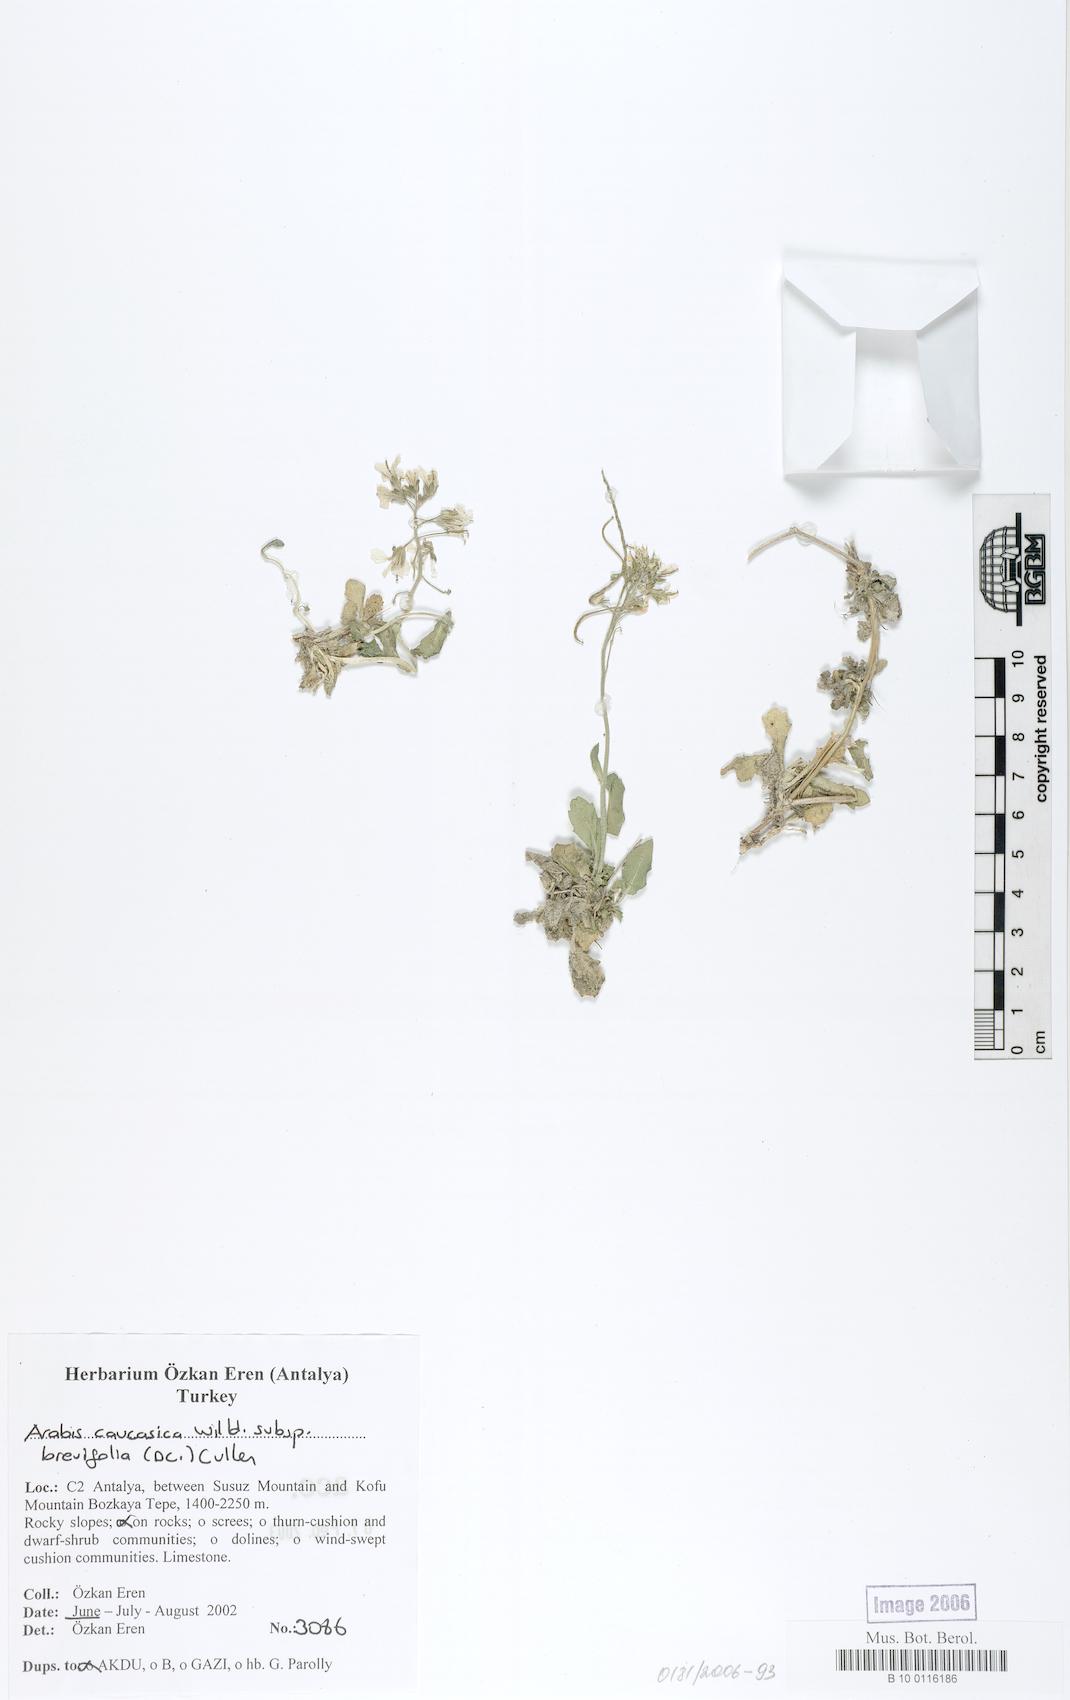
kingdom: Plantae
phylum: Tracheophyta
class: Magnoliopsida
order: Brassicales
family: Brassicaceae
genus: Arabis
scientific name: Arabis caucasica
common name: Gray rockcress
